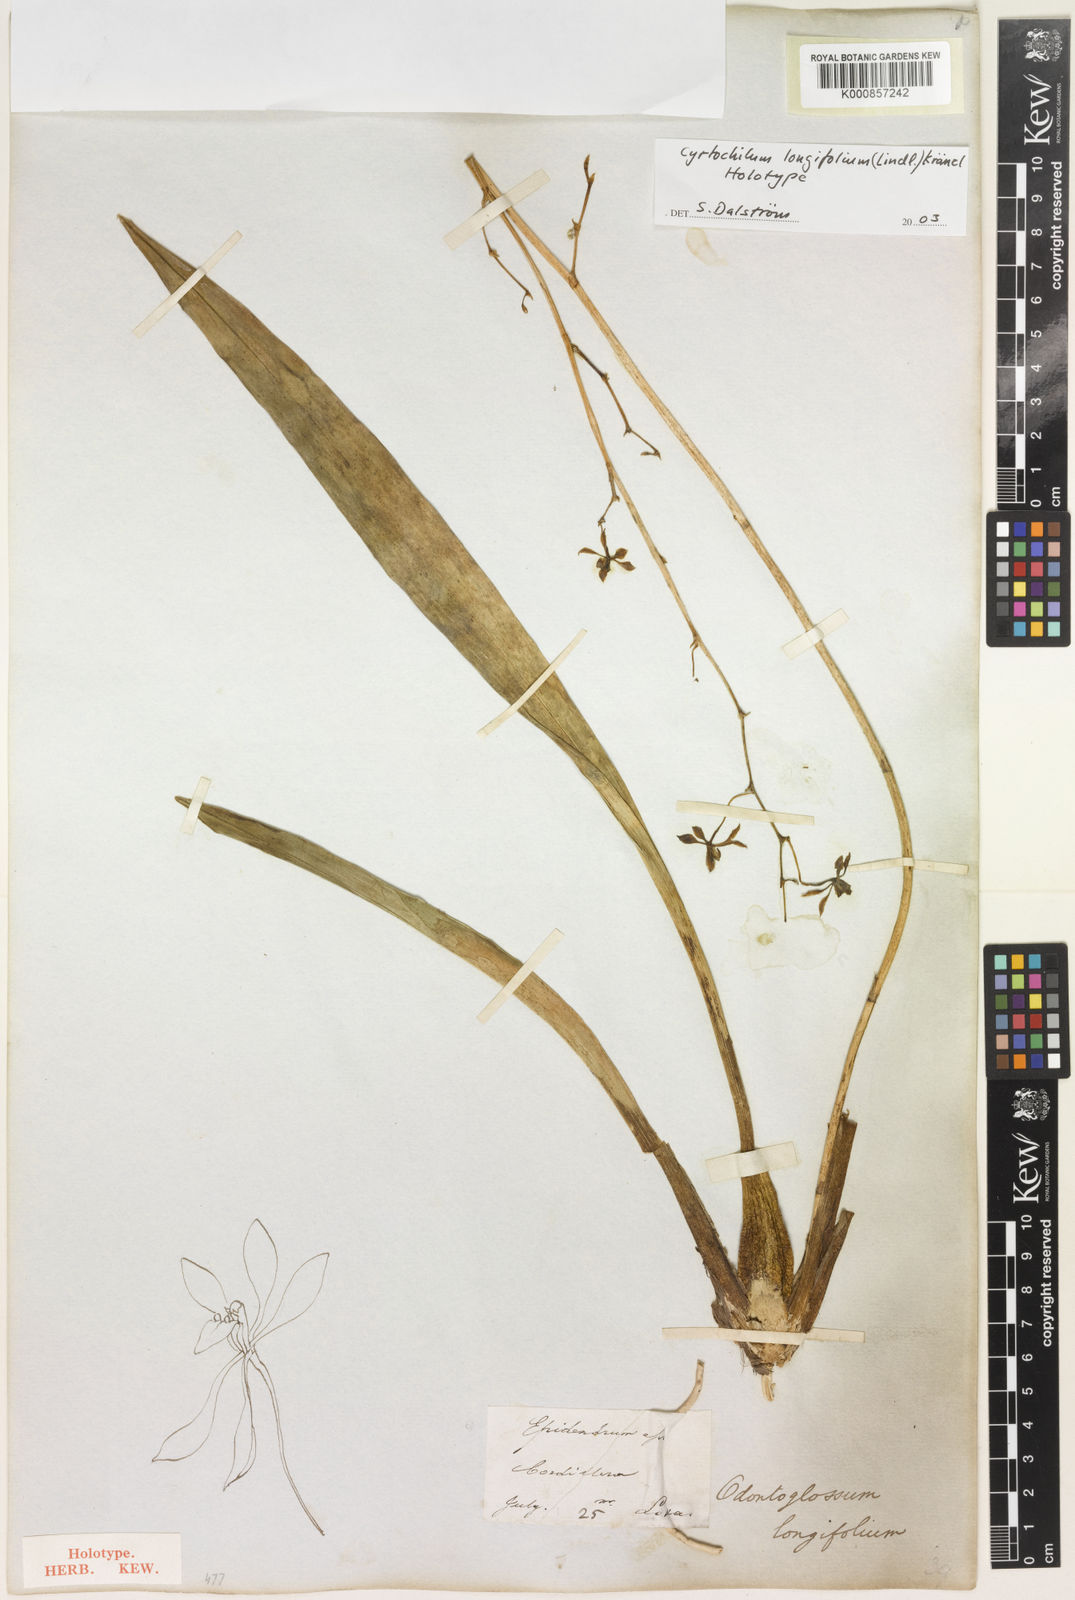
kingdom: Plantae
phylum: Tracheophyta
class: Liliopsida
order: Asparagales
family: Orchidaceae
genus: Cyrtochilum
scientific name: Cyrtochilum longifolium
